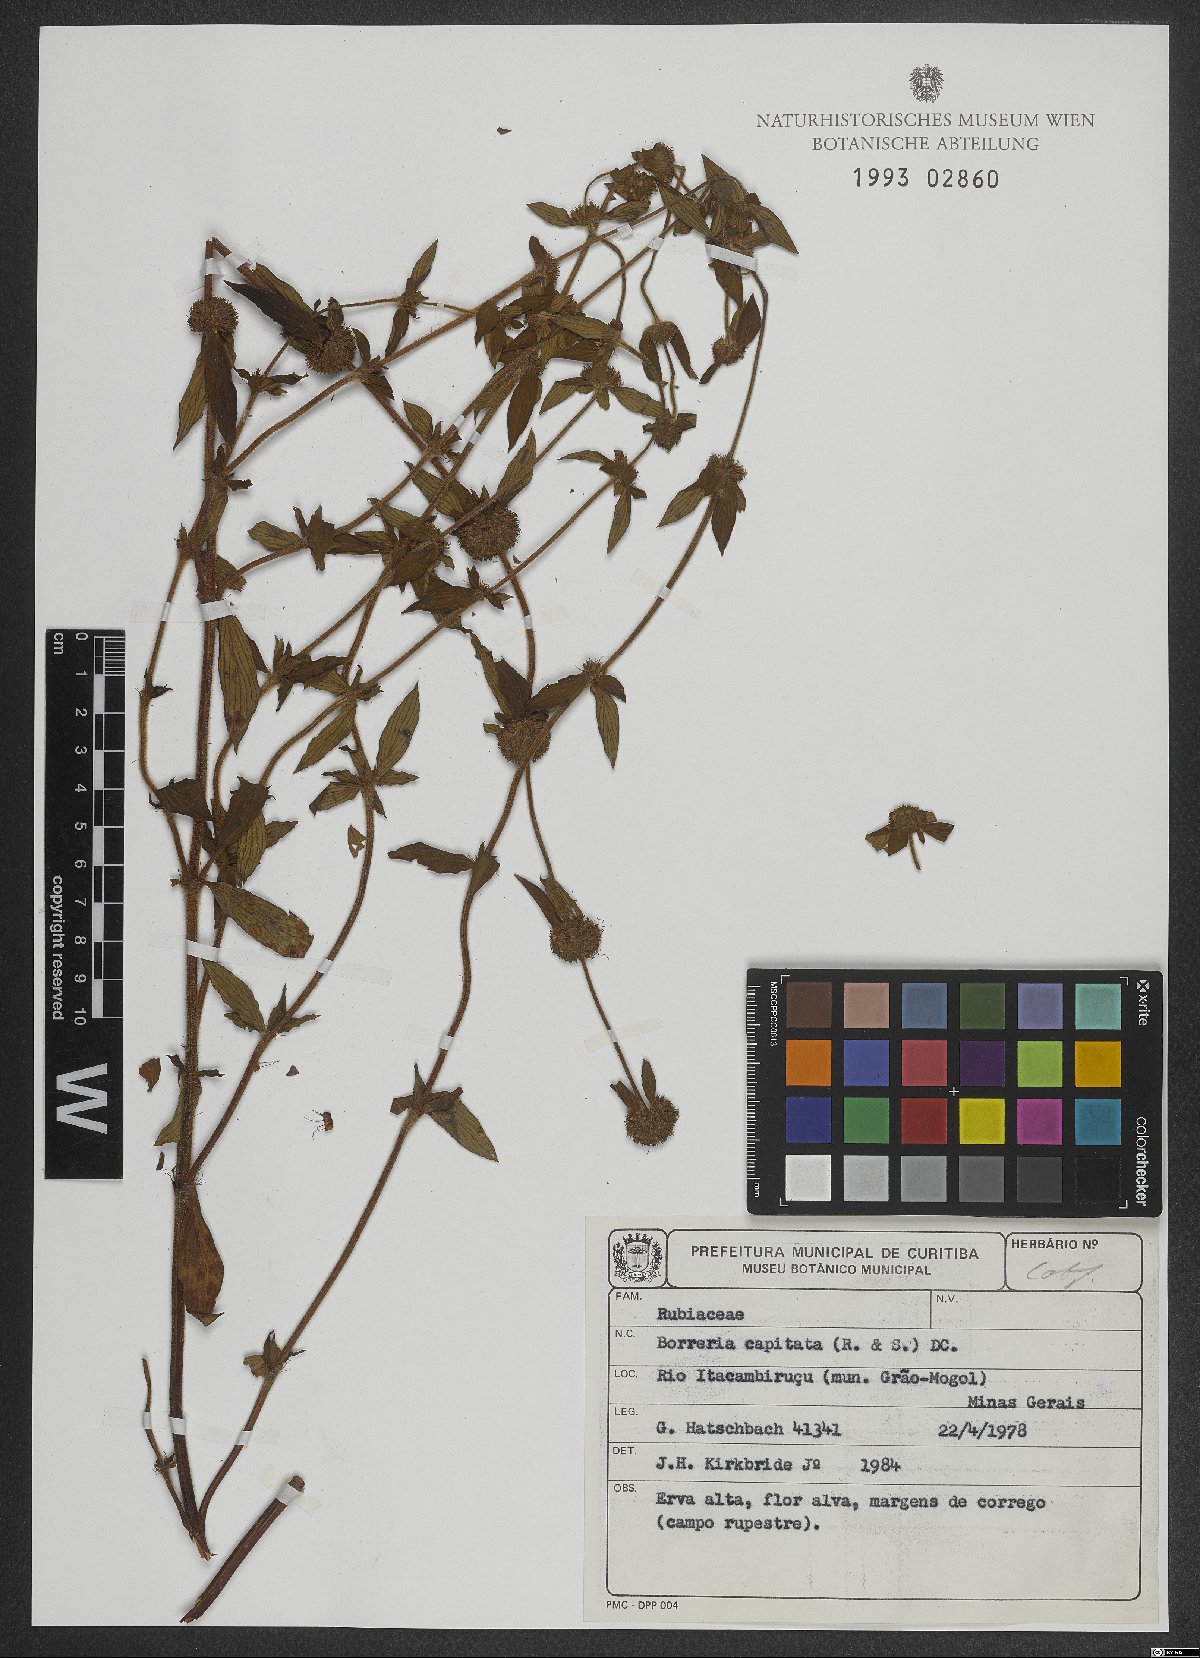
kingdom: Plantae
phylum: Tracheophyta
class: Magnoliopsida
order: Gentianales
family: Rubiaceae
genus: Spermacoce
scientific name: Spermacoce capitata
